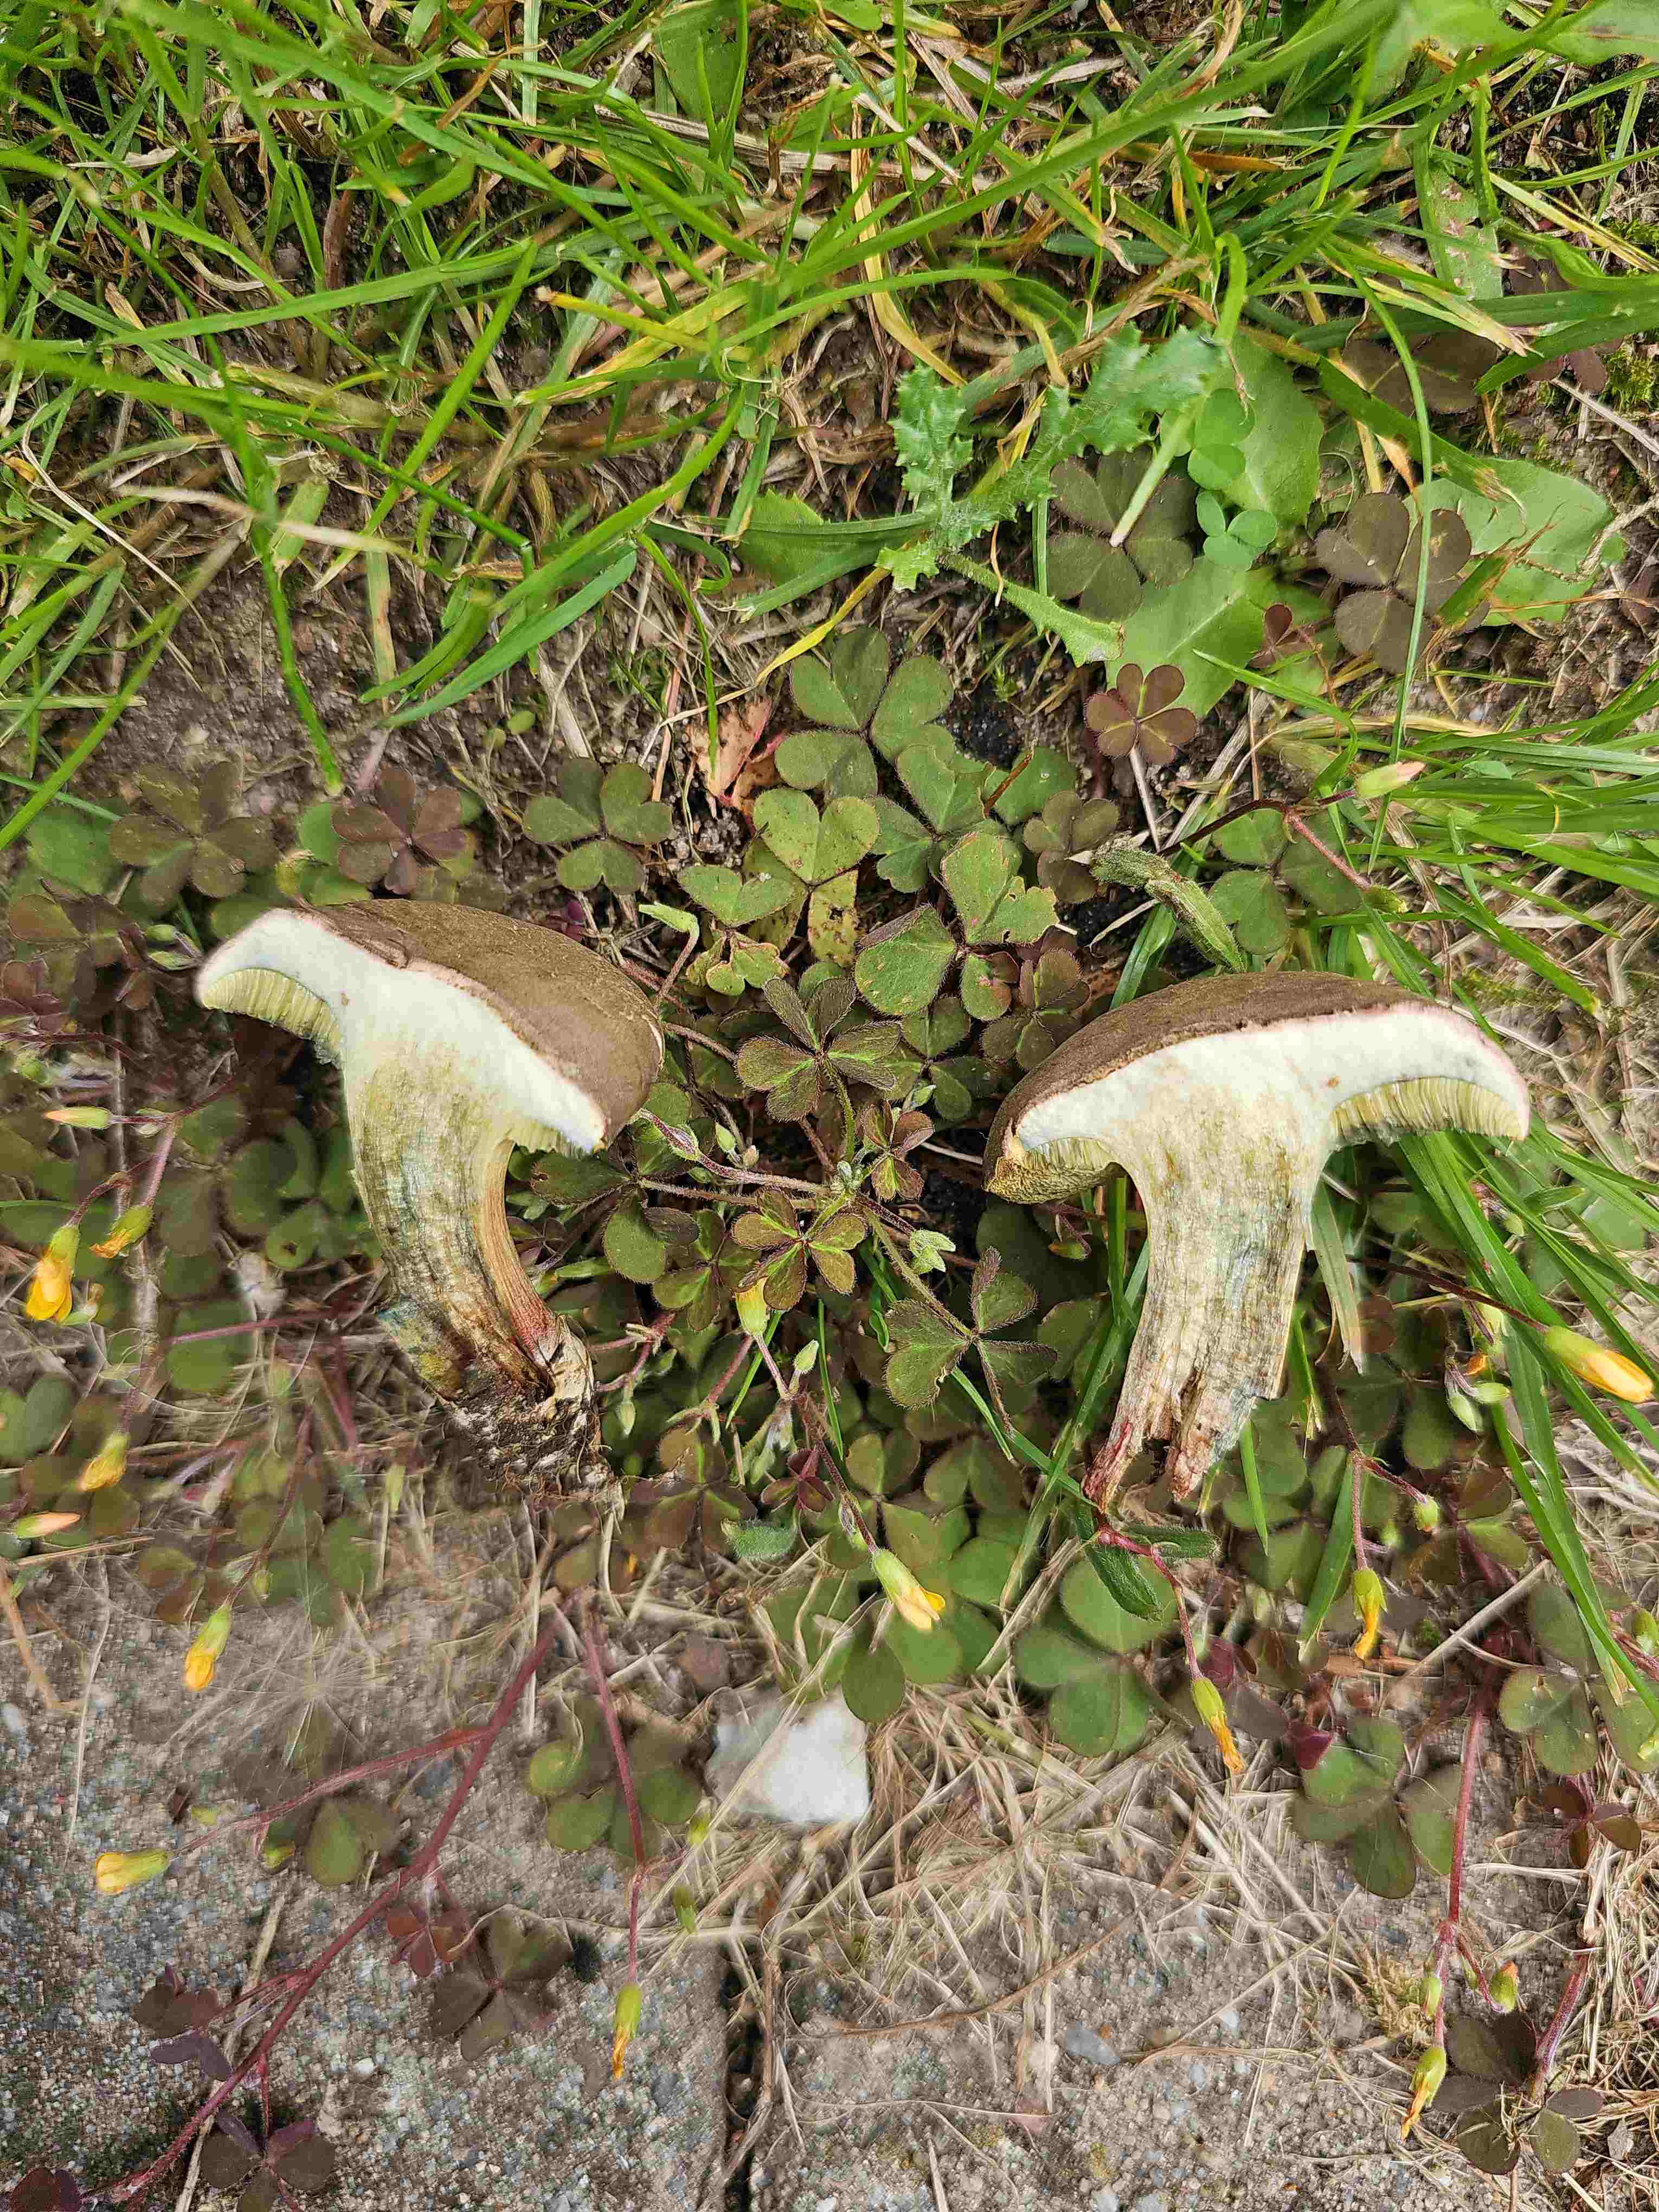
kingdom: Fungi
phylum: Basidiomycota
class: Agaricomycetes
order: Boletales
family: Boletaceae
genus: Xerocomellus
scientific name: Xerocomellus cisalpinus
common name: finsprukken rørhat
